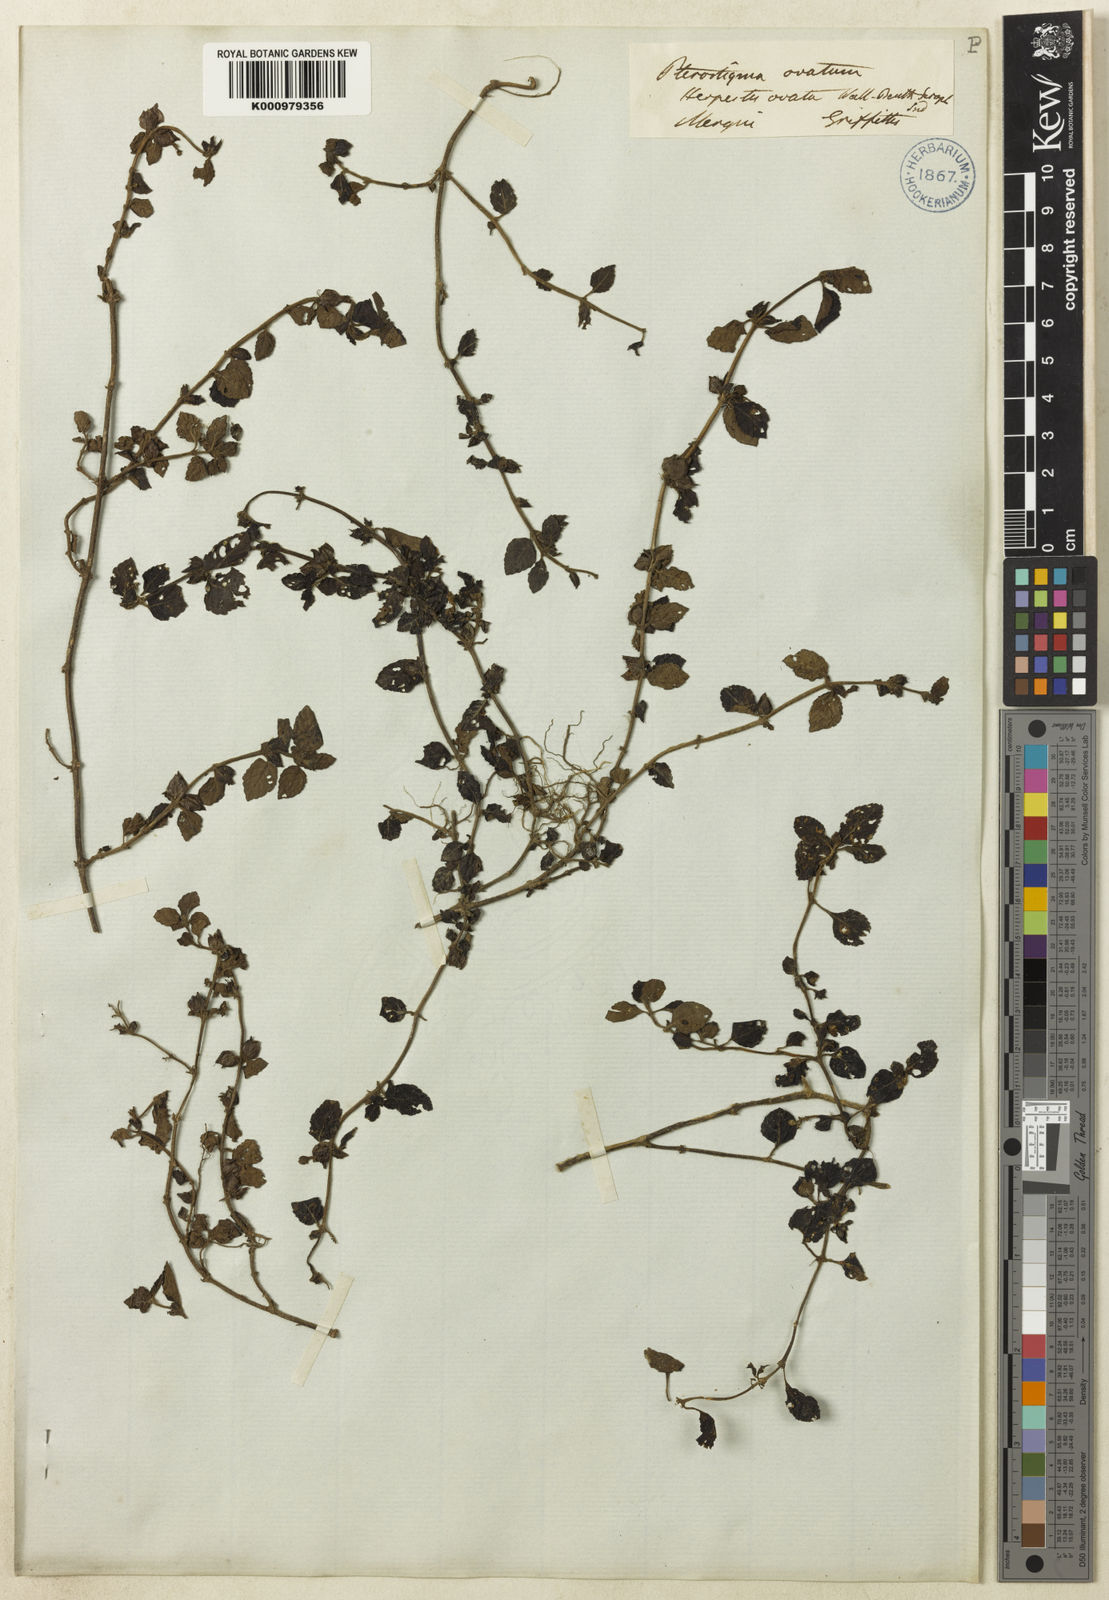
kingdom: Plantae
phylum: Tracheophyta
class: Magnoliopsida
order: Lamiales
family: Plantaginaceae
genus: Adenosma
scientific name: Adenosma
